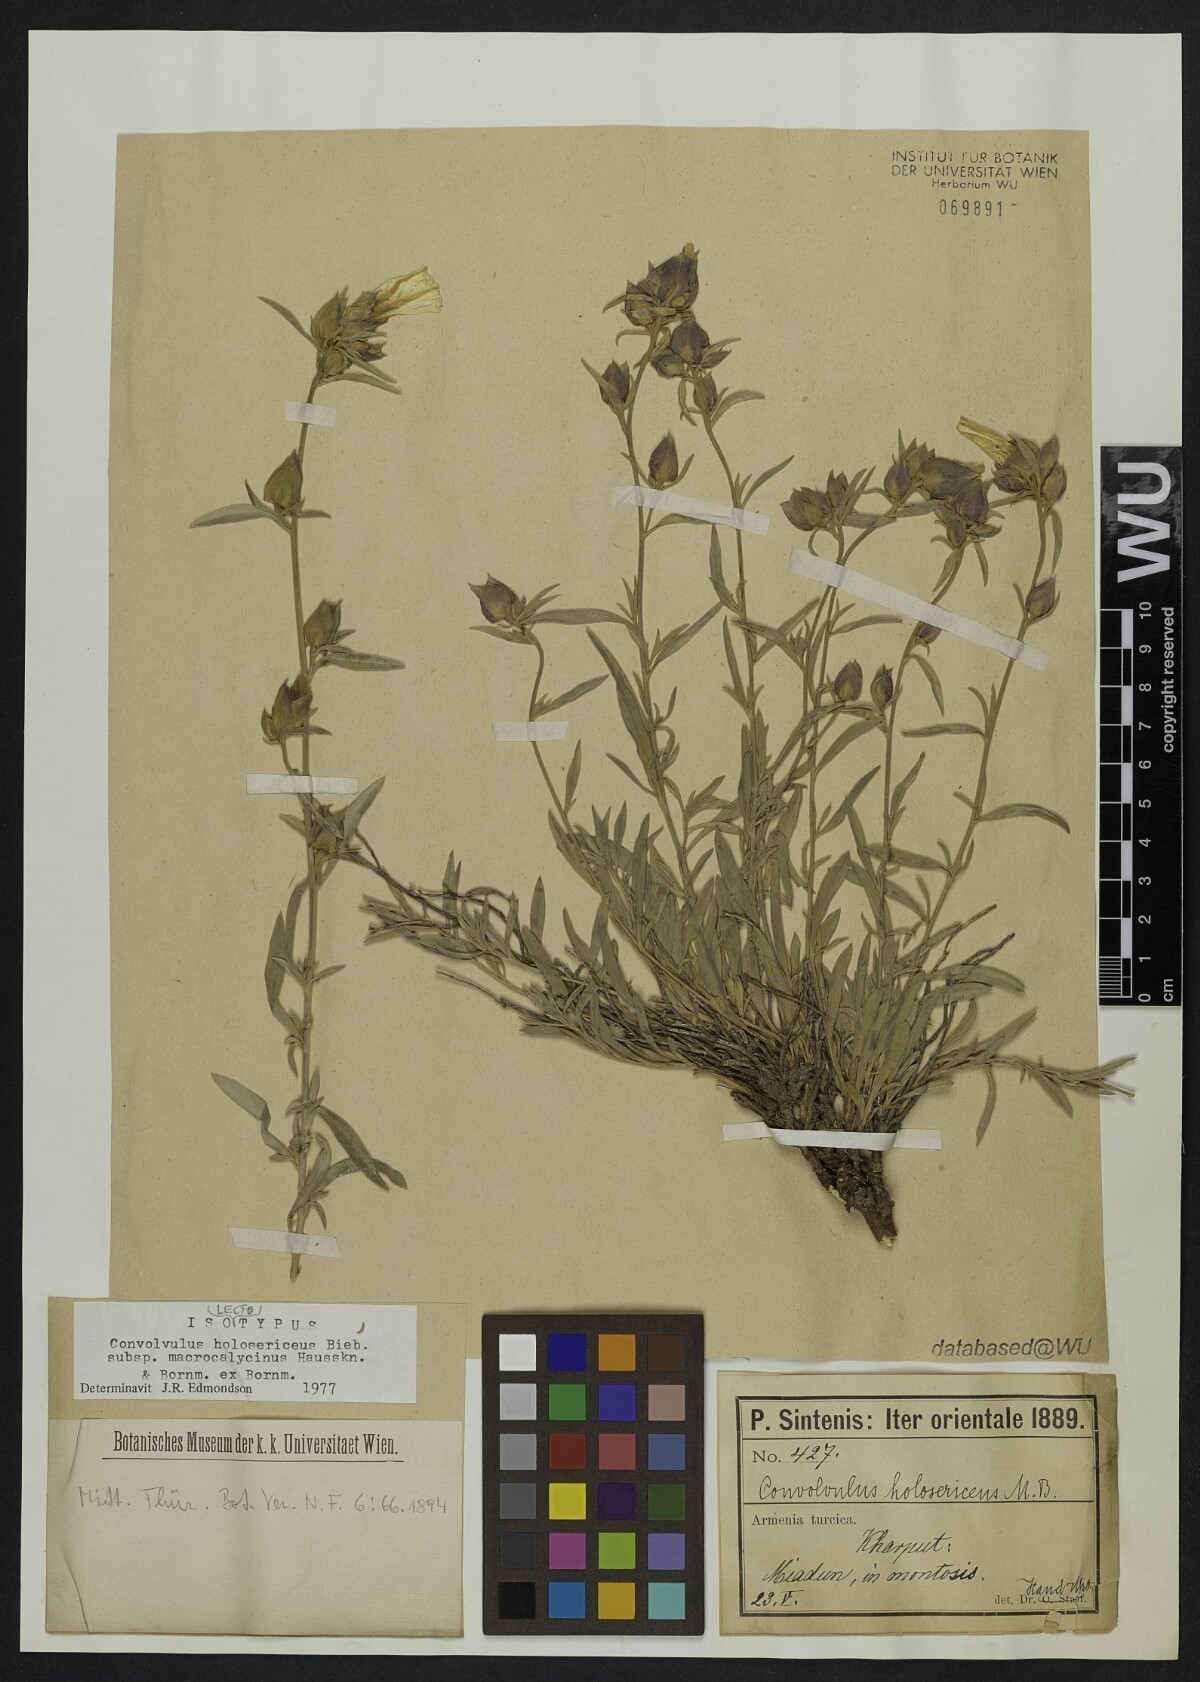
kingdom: Plantae
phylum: Tracheophyta
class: Magnoliopsida
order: Solanales
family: Convolvulaceae
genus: Convolvulus
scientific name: Convolvulus holosericeus
